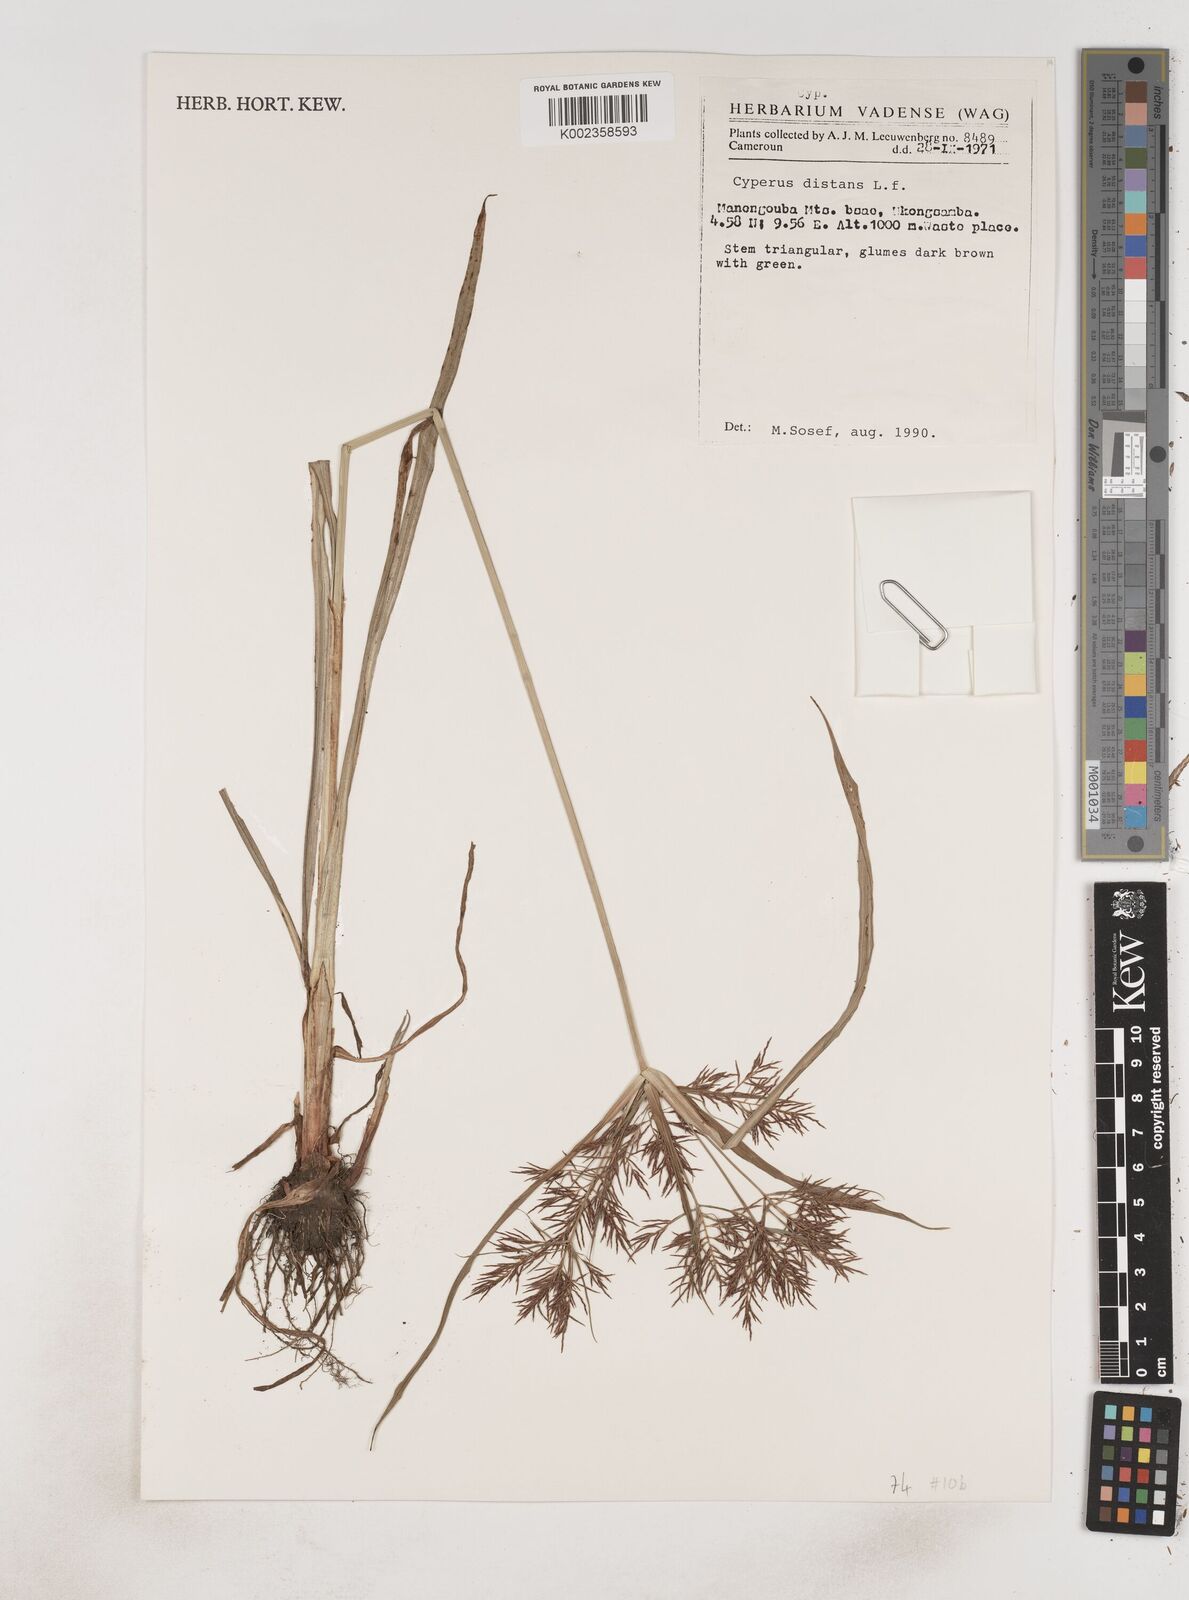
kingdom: Plantae
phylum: Tracheophyta
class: Liliopsida
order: Poales
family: Cyperaceae
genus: Cyperus
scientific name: Cyperus distans
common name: Slender cyperus
